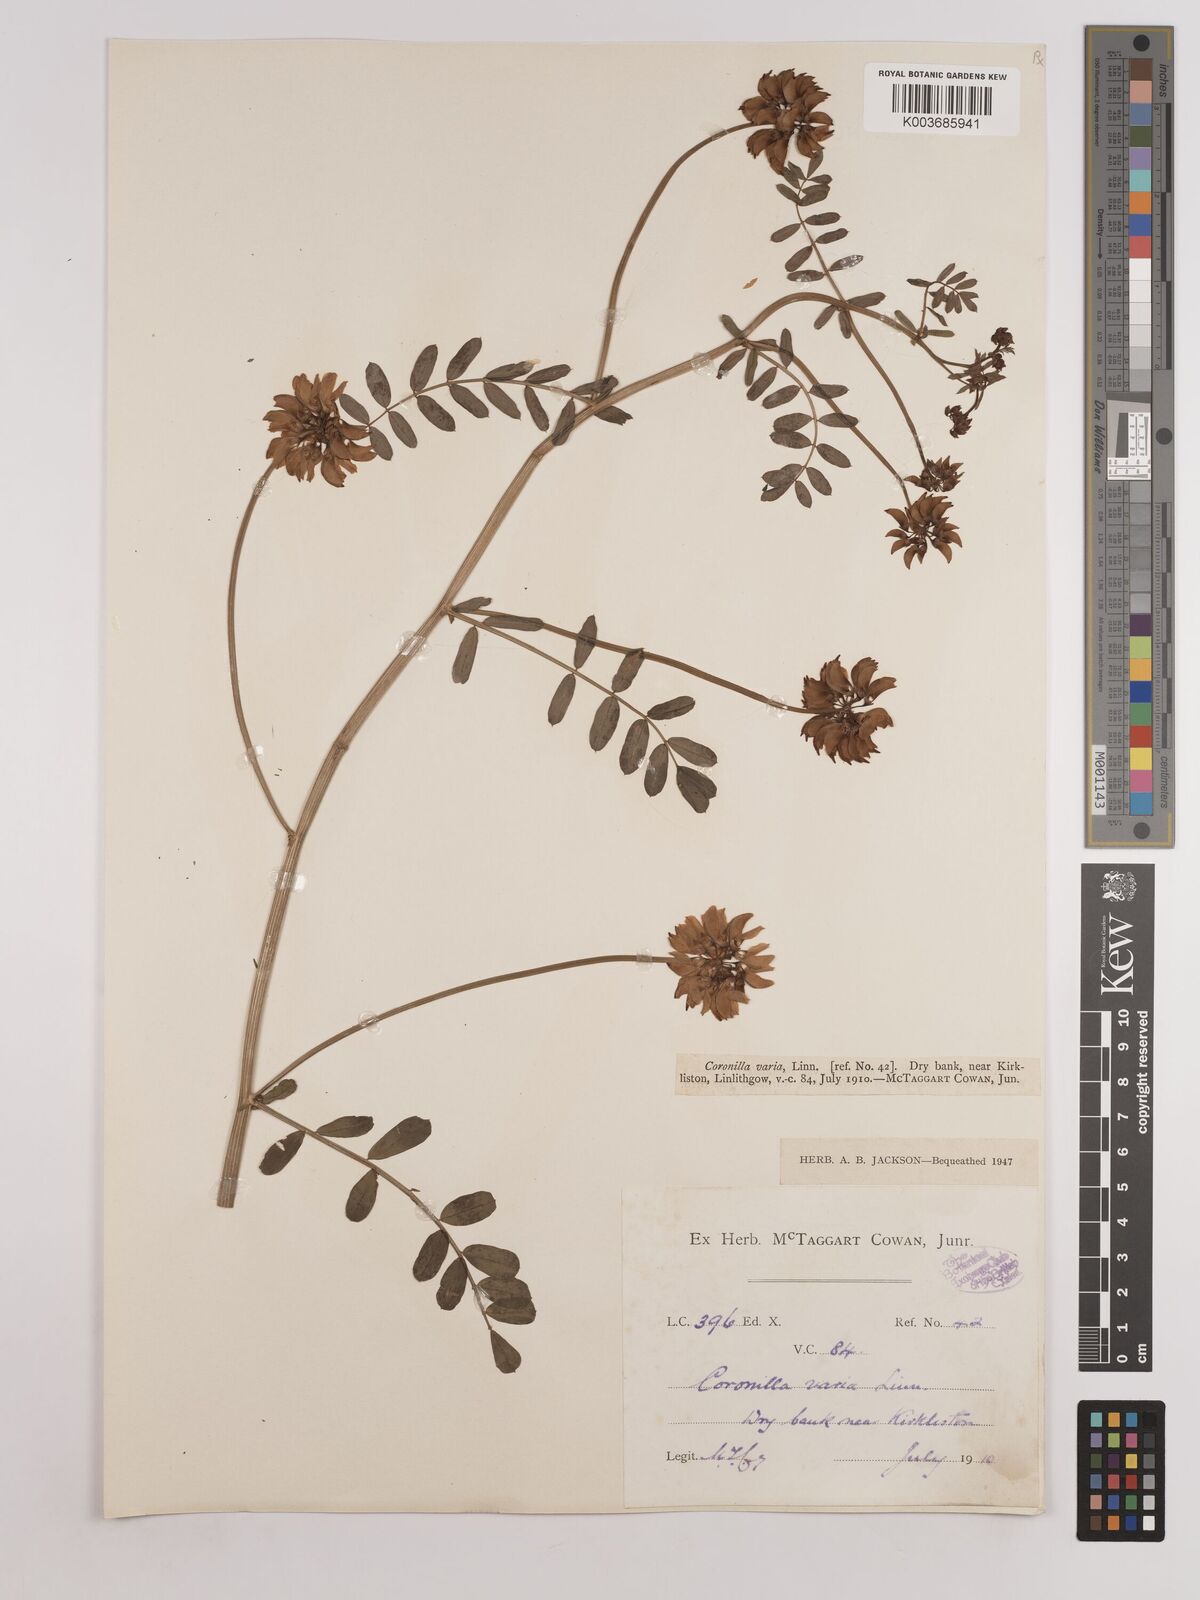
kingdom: Plantae
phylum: Tracheophyta
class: Magnoliopsida
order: Fabales
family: Fabaceae
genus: Coronilla
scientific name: Coronilla varia
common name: Crownvetch
